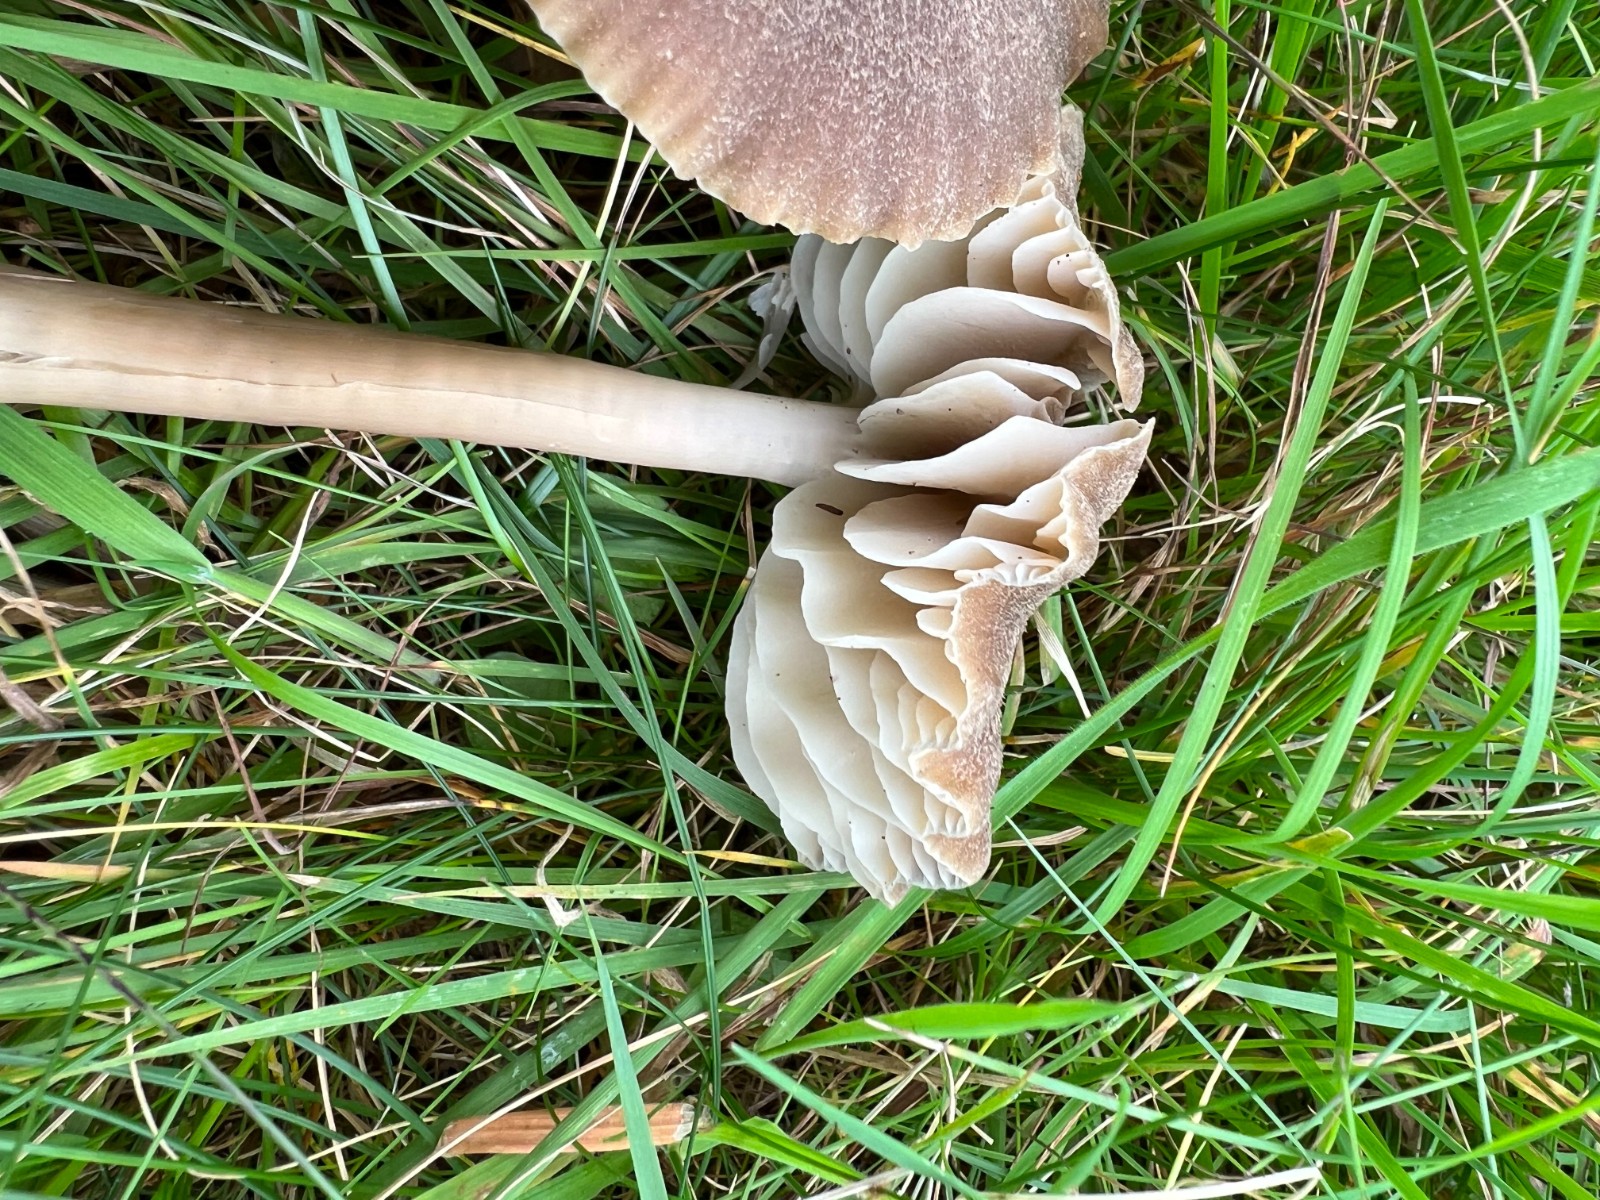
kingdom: Fungi
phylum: Basidiomycota
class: Agaricomycetes
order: Agaricales
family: Hygrophoraceae
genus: Neohygrocybe
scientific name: Neohygrocybe nitrata
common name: stinkende vokshat
